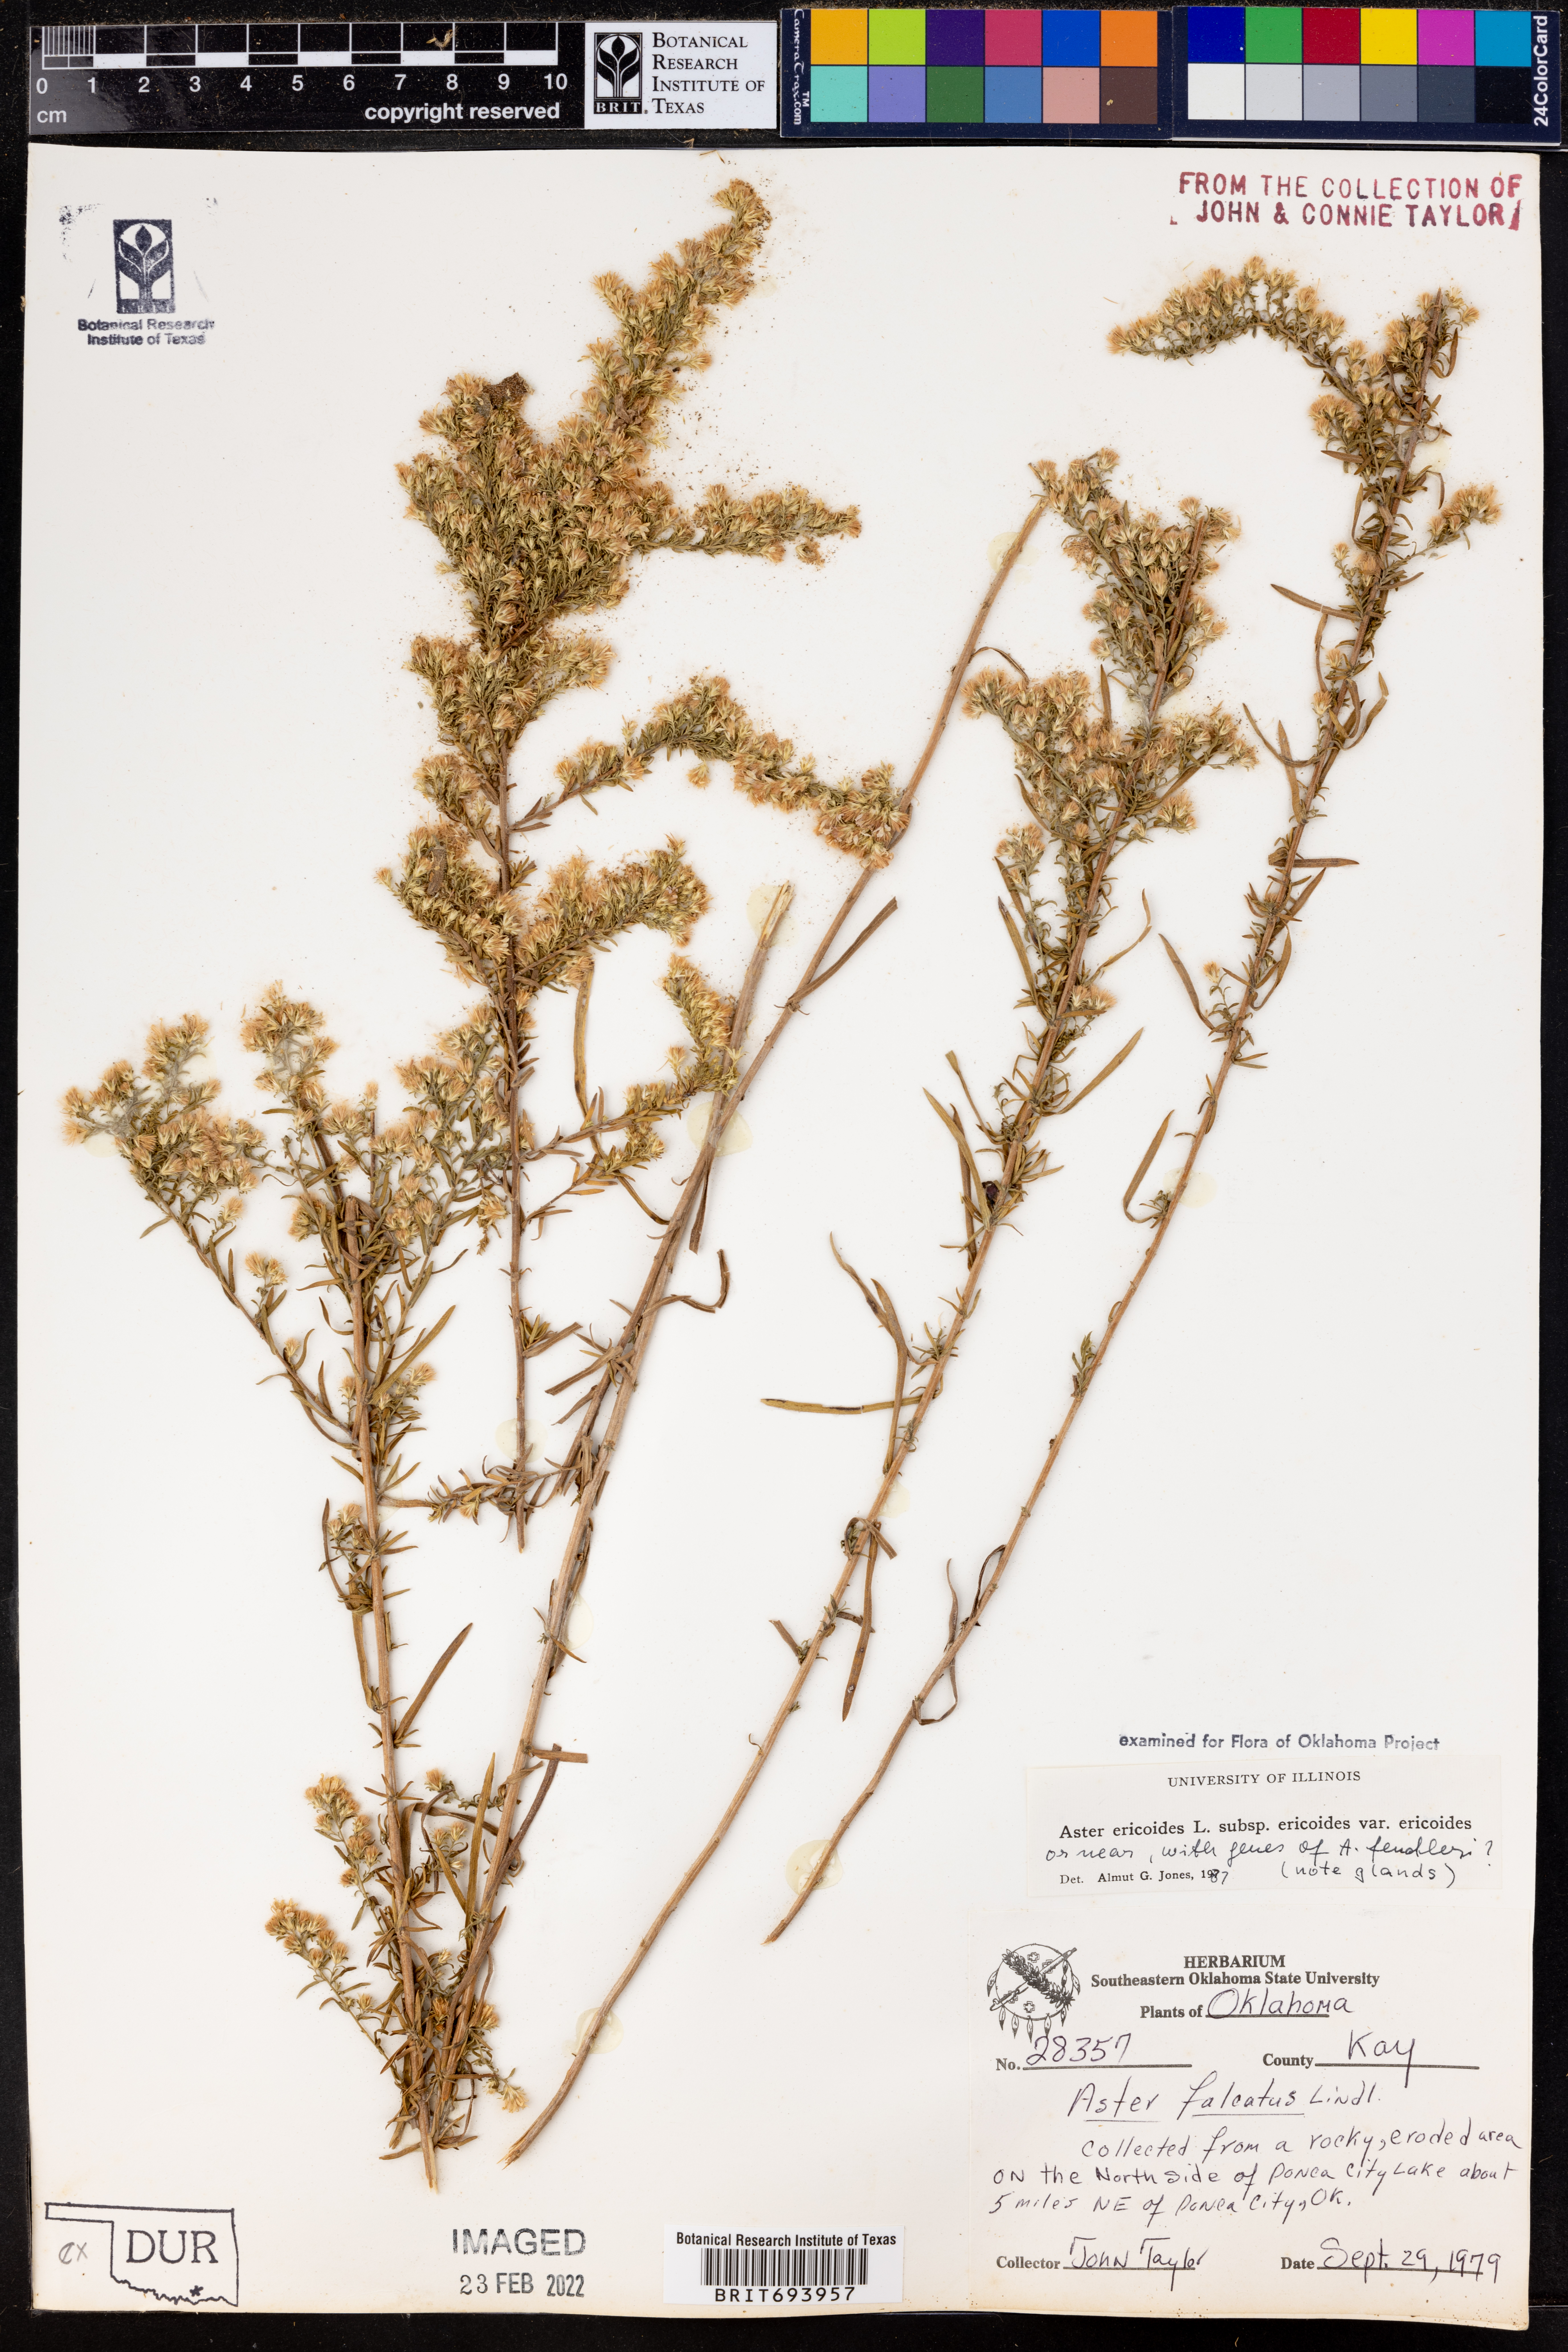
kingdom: Plantae
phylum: Tracheophyta
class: Magnoliopsida
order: Asterales
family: Asteraceae
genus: Symphyotrichum
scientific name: Symphyotrichum ericoides
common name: Heath aster
